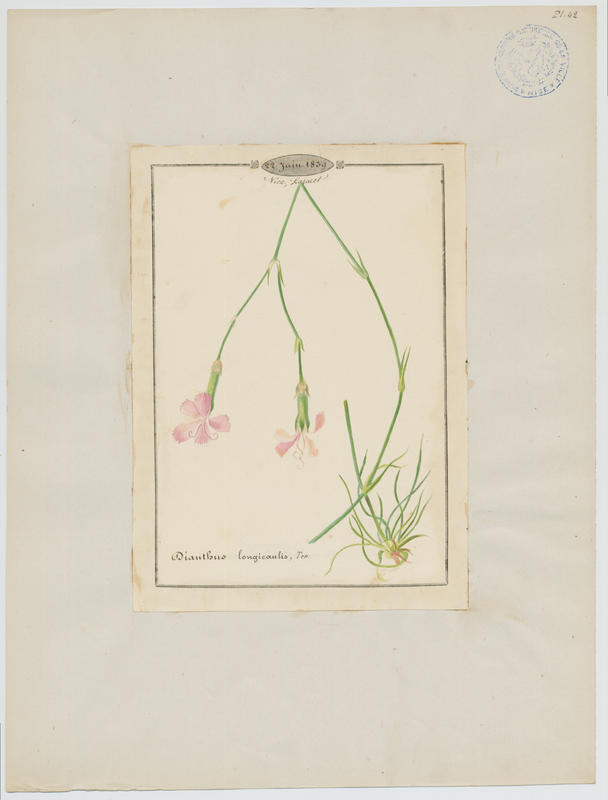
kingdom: Plantae
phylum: Tracheophyta
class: Magnoliopsida
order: Caryophyllales
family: Caryophyllaceae
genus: Dianthus
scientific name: Dianthus virgineus
